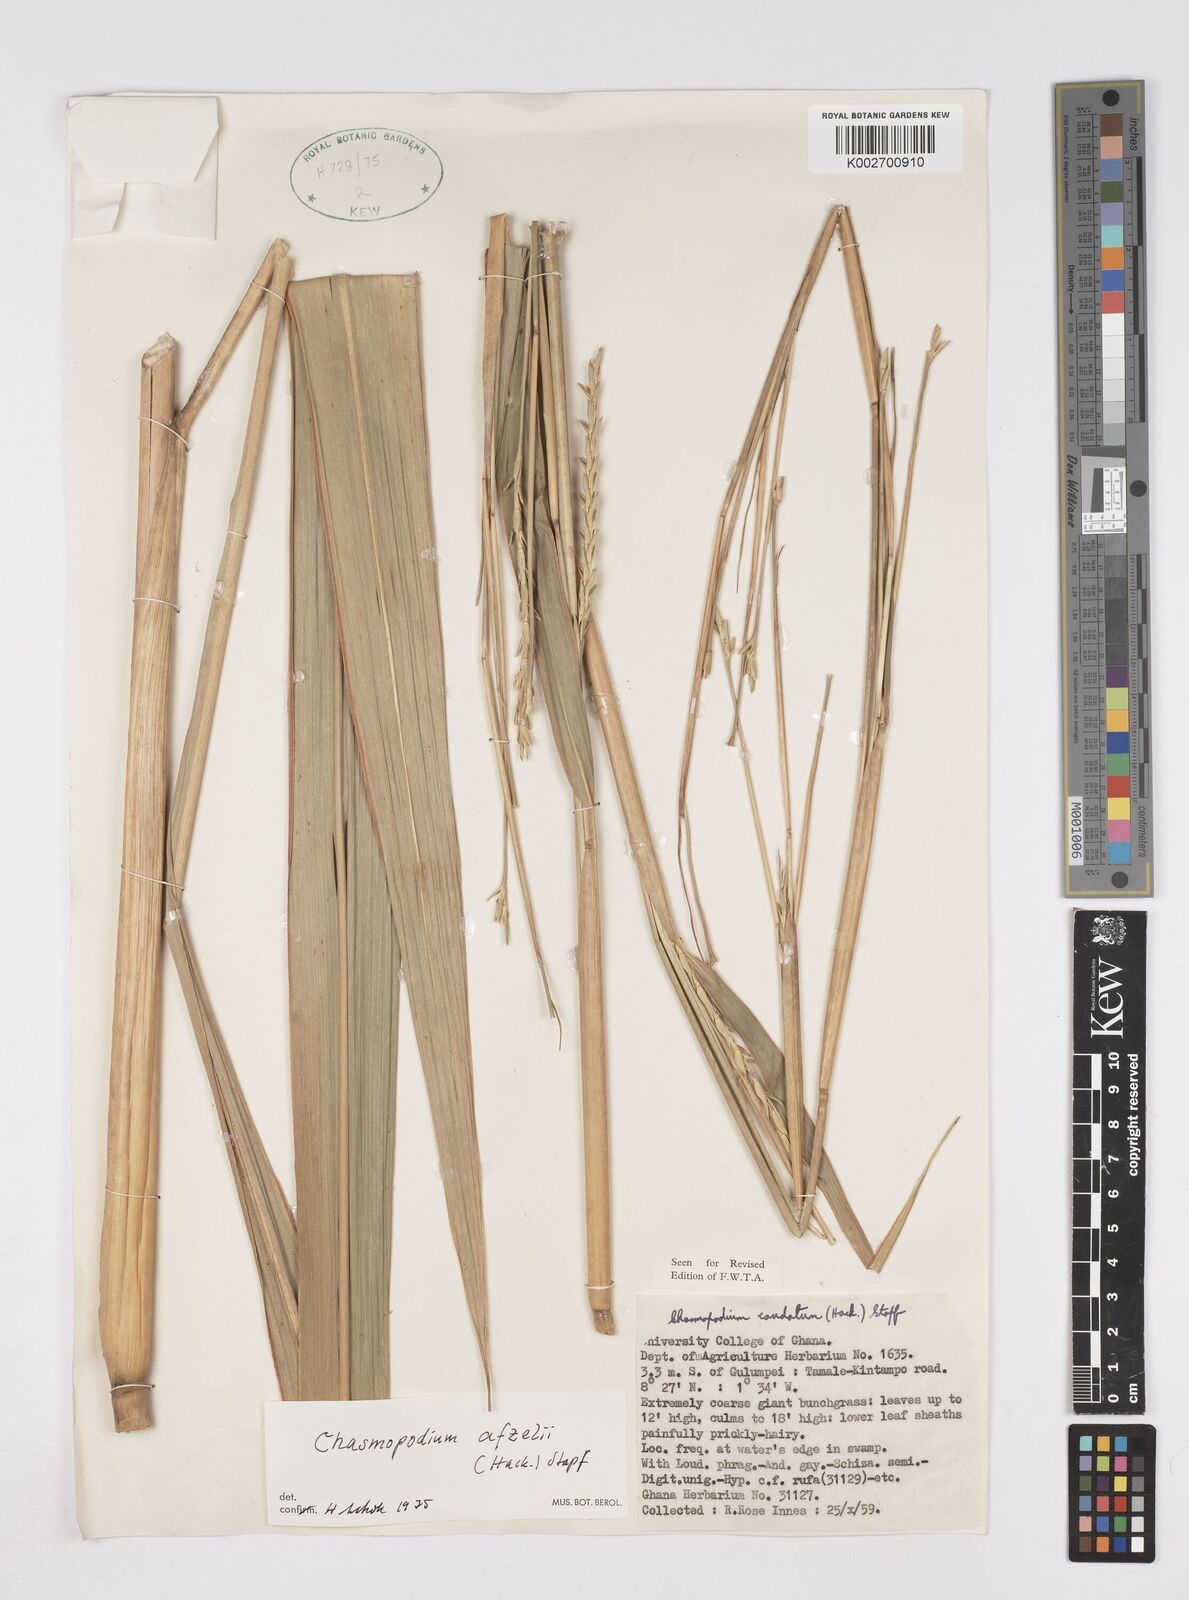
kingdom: Plantae
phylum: Tracheophyta
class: Liliopsida
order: Poales
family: Poaceae
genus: Chasmopodium
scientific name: Chasmopodium afzelii
